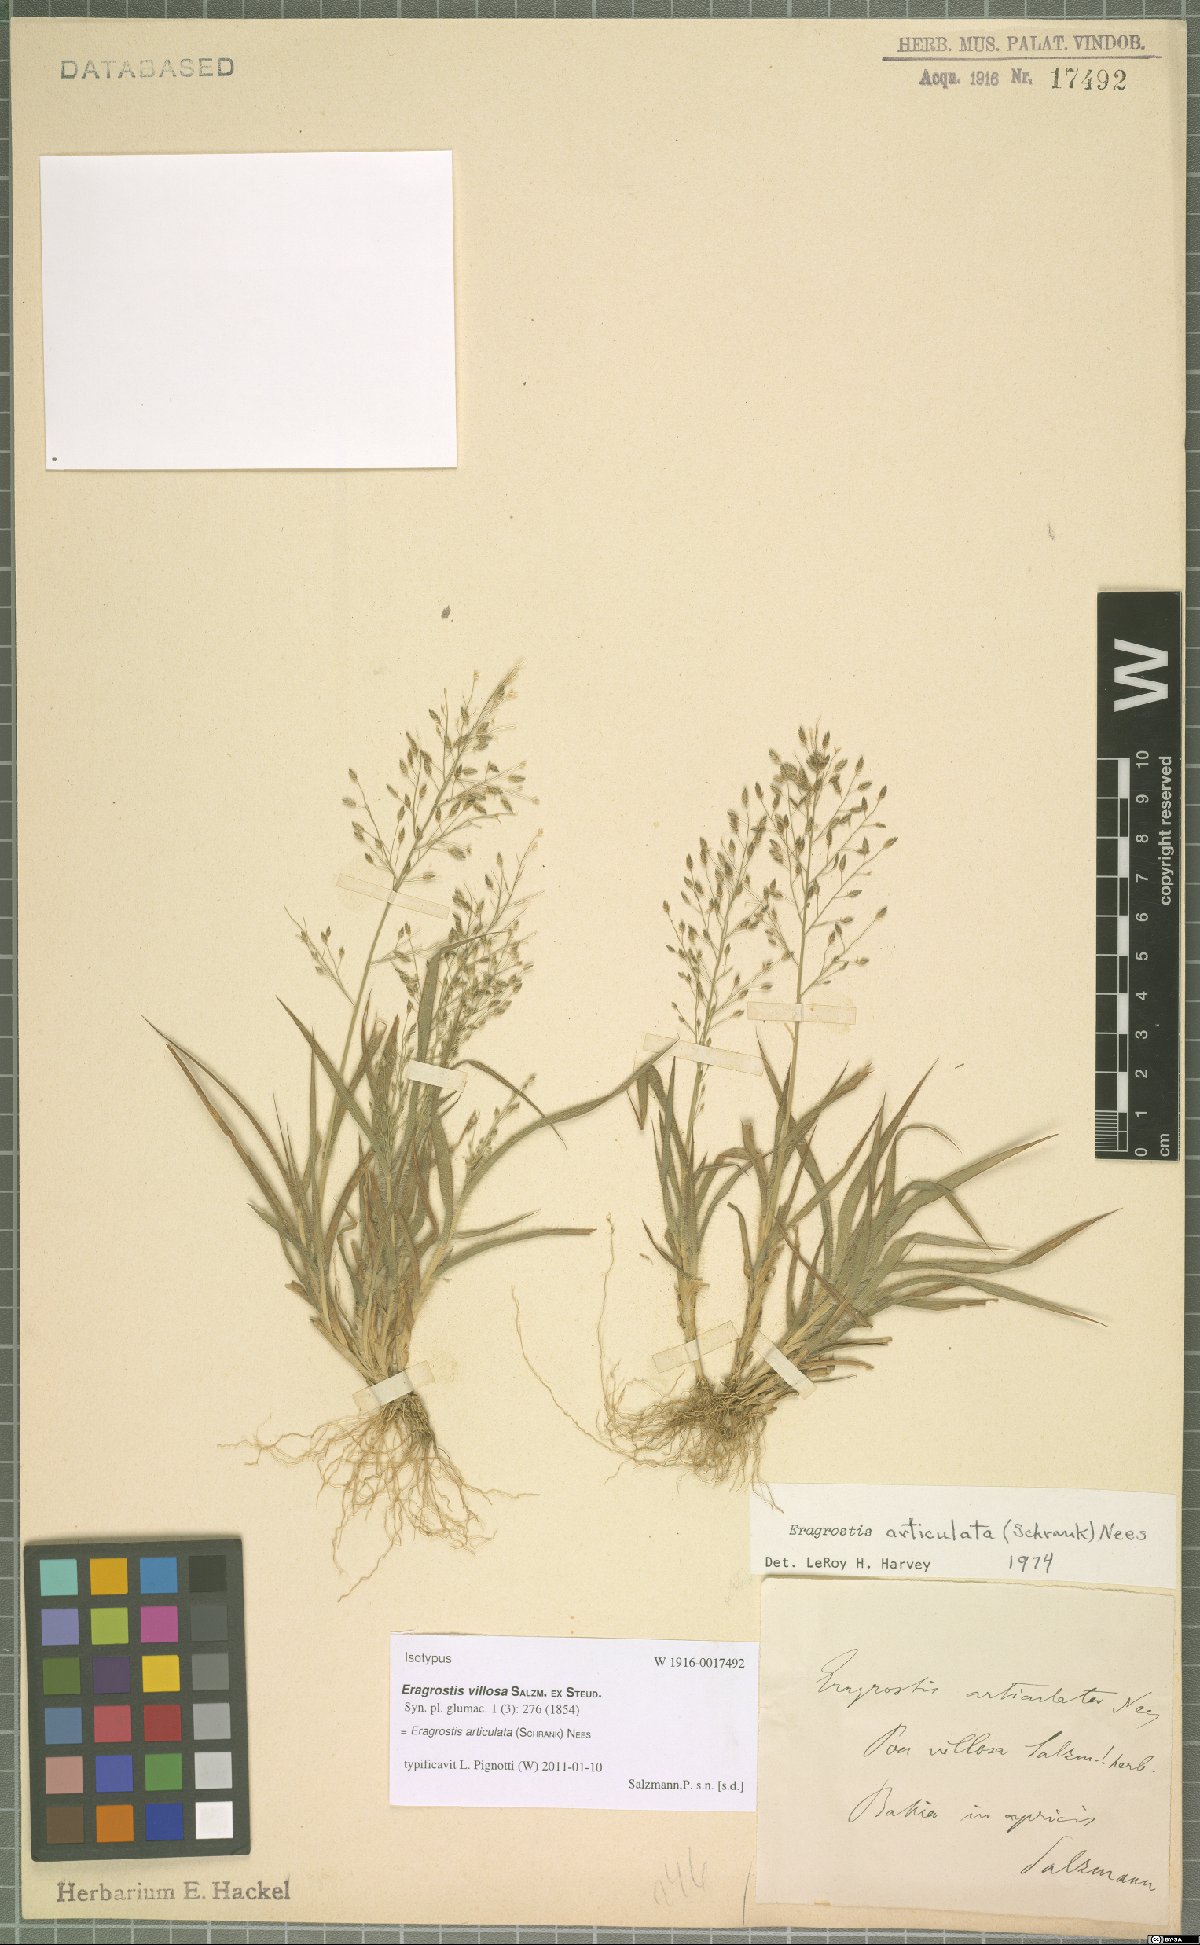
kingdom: Plantae
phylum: Tracheophyta
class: Liliopsida
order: Poales
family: Poaceae
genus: Eragrostis
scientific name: Eragrostis articulata
